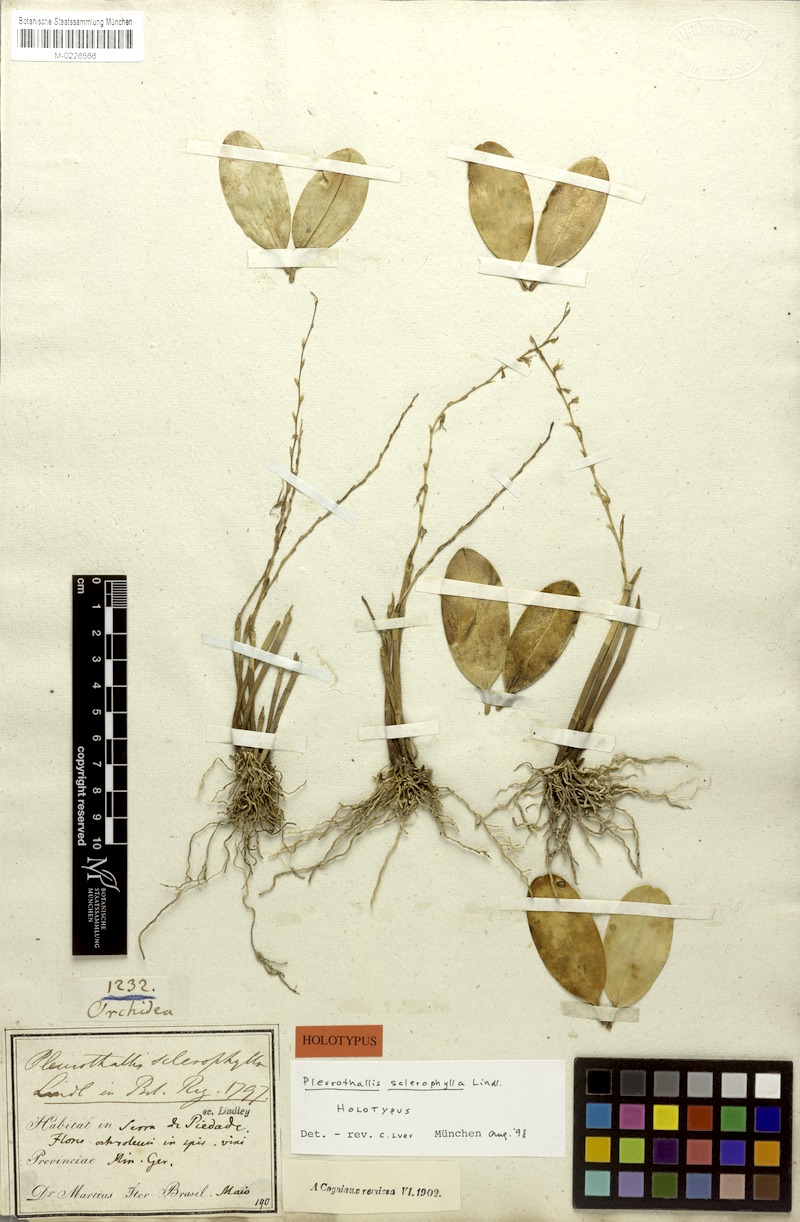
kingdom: Plantae
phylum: Tracheophyta
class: Liliopsida
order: Asparagales
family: Orchidaceae
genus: Stelis
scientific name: Stelis sclerophylla
